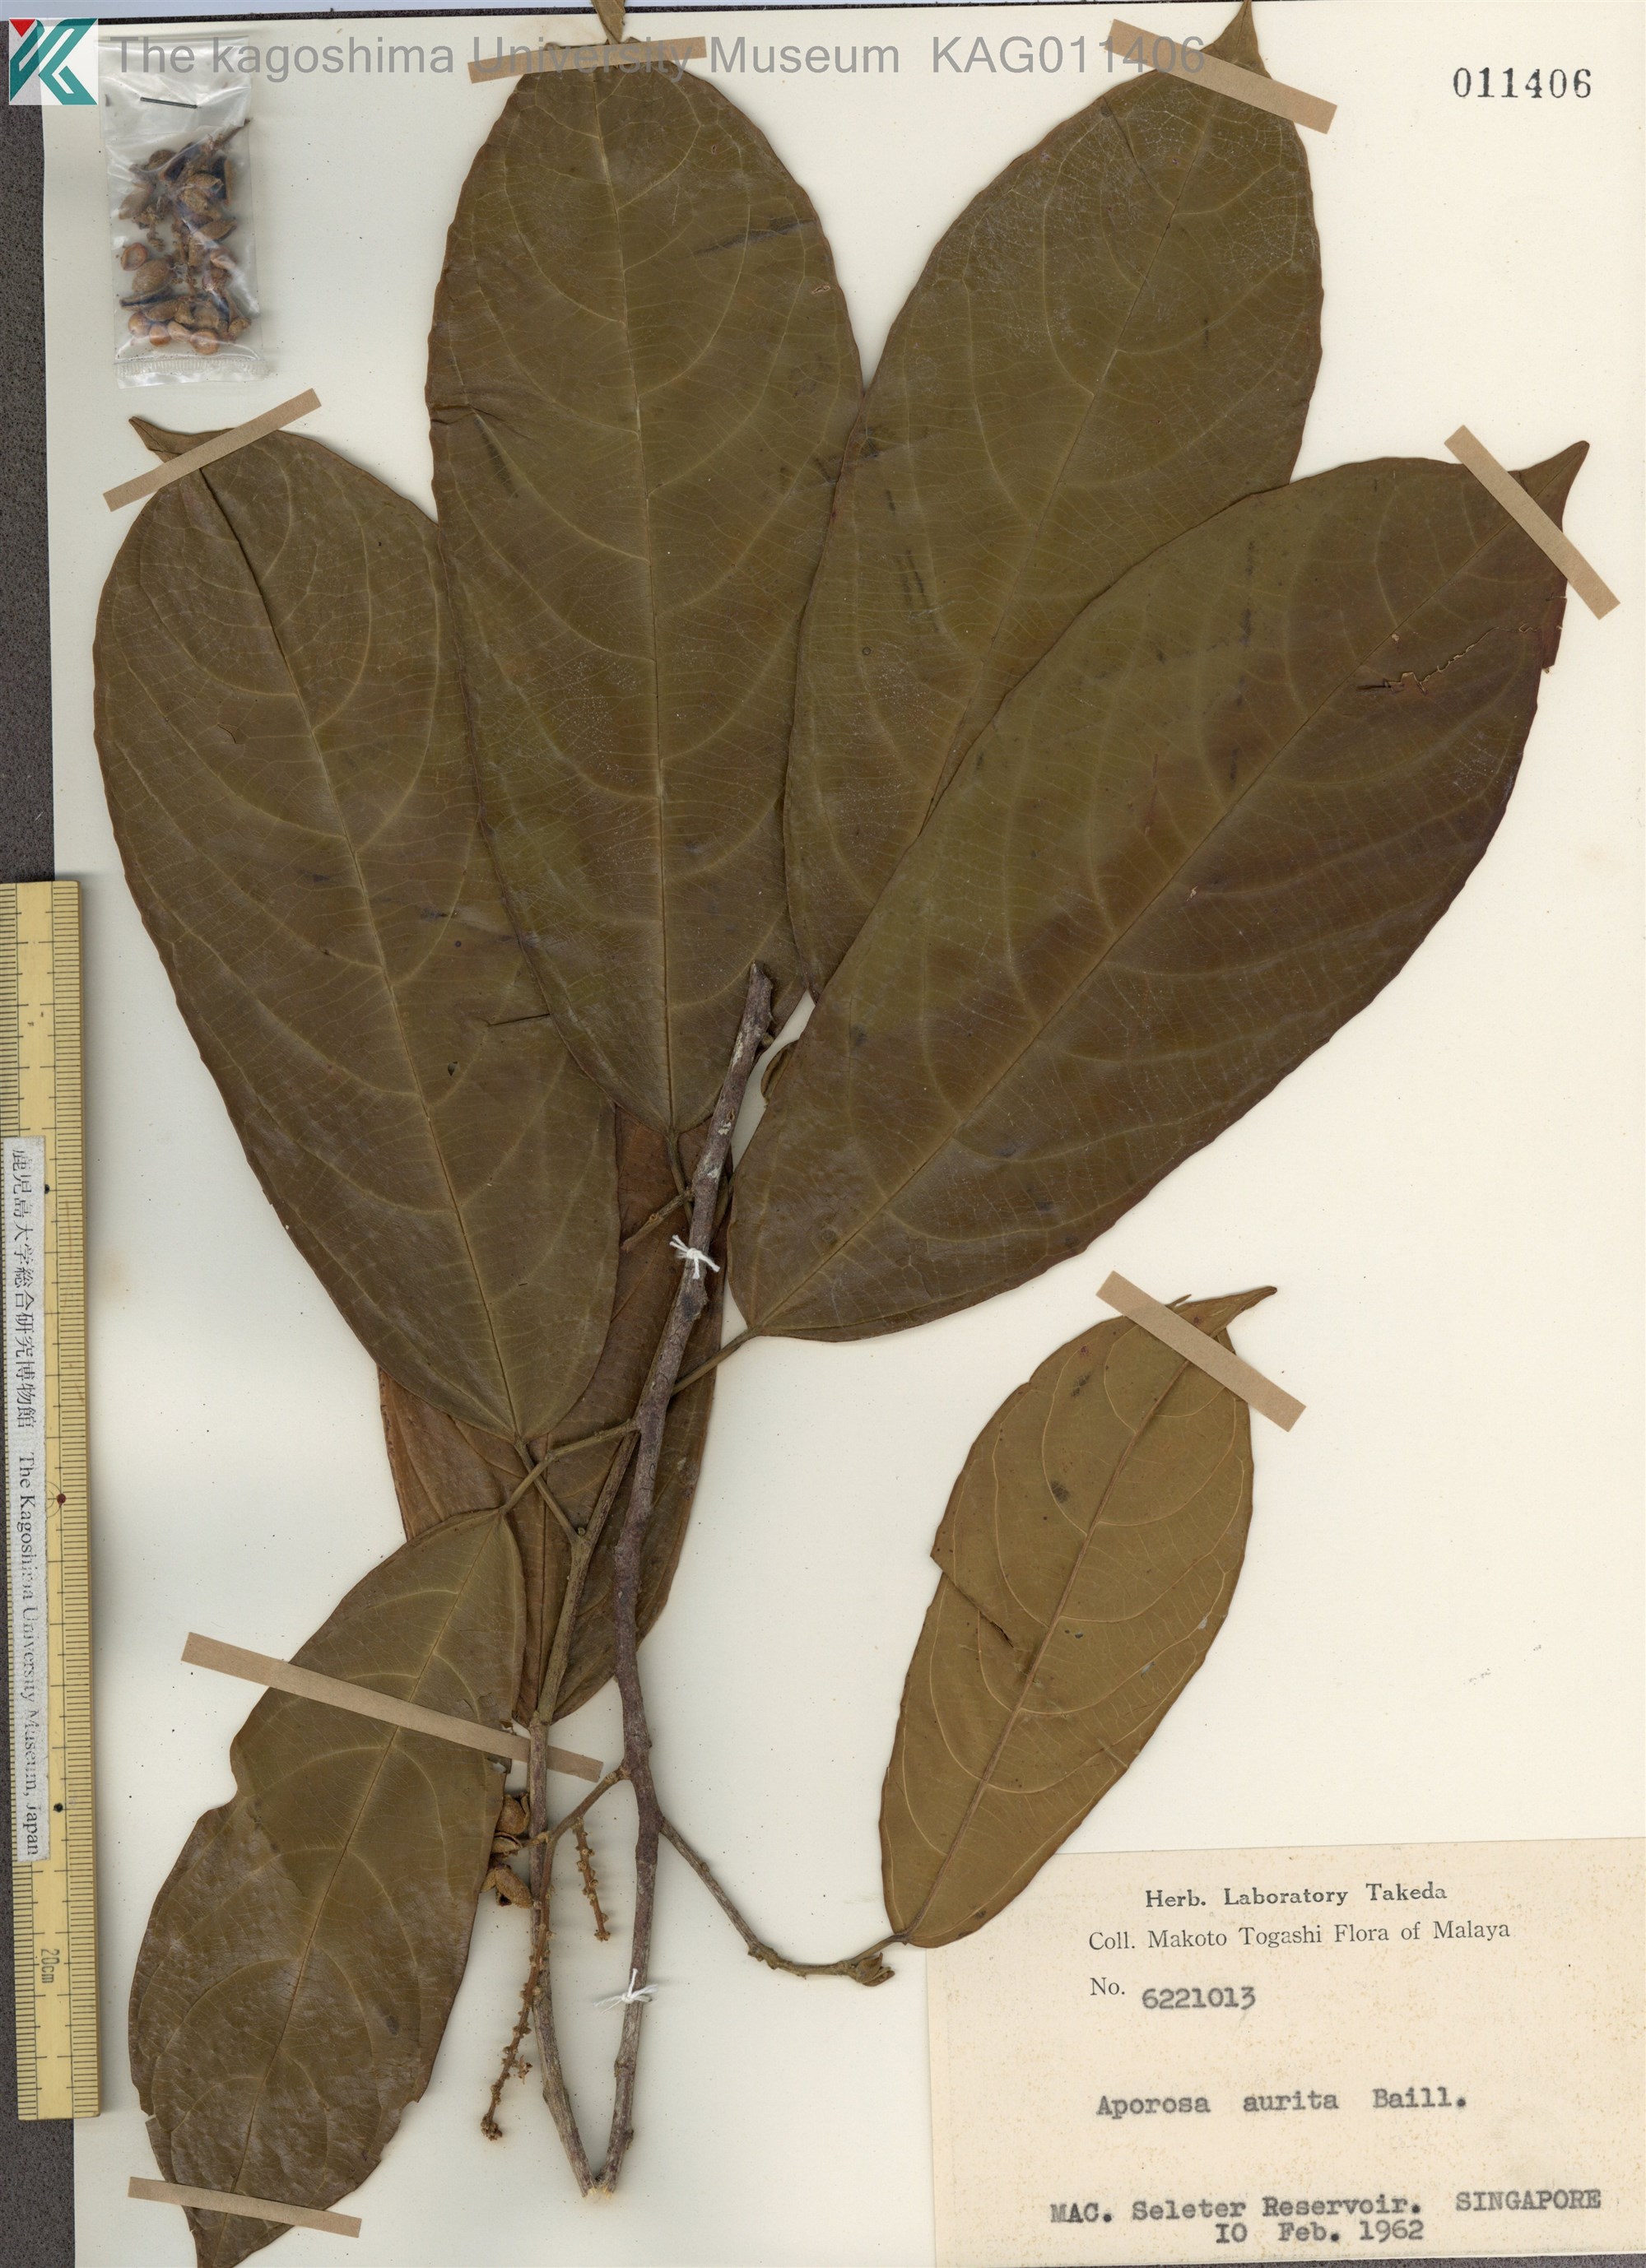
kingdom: Plantae
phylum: Tracheophyta
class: Magnoliopsida
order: Malpighiales
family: Phyllanthaceae
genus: Aporosa
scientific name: Aporosa octandra
